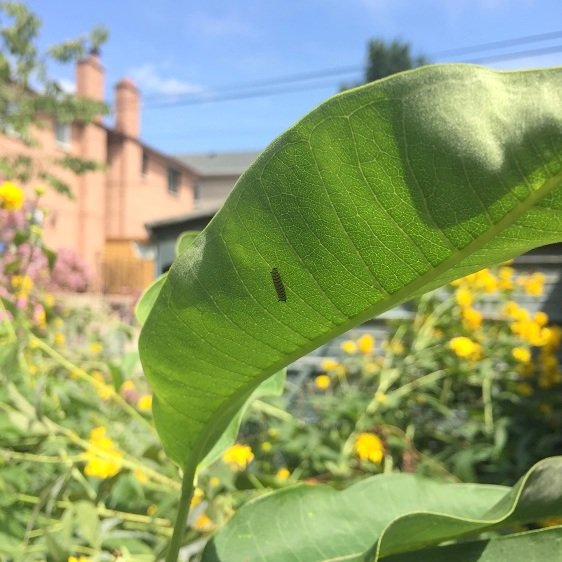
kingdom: Animalia
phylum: Arthropoda
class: Insecta
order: Lepidoptera
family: Nymphalidae
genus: Danaus
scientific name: Danaus plexippus
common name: Monarch
